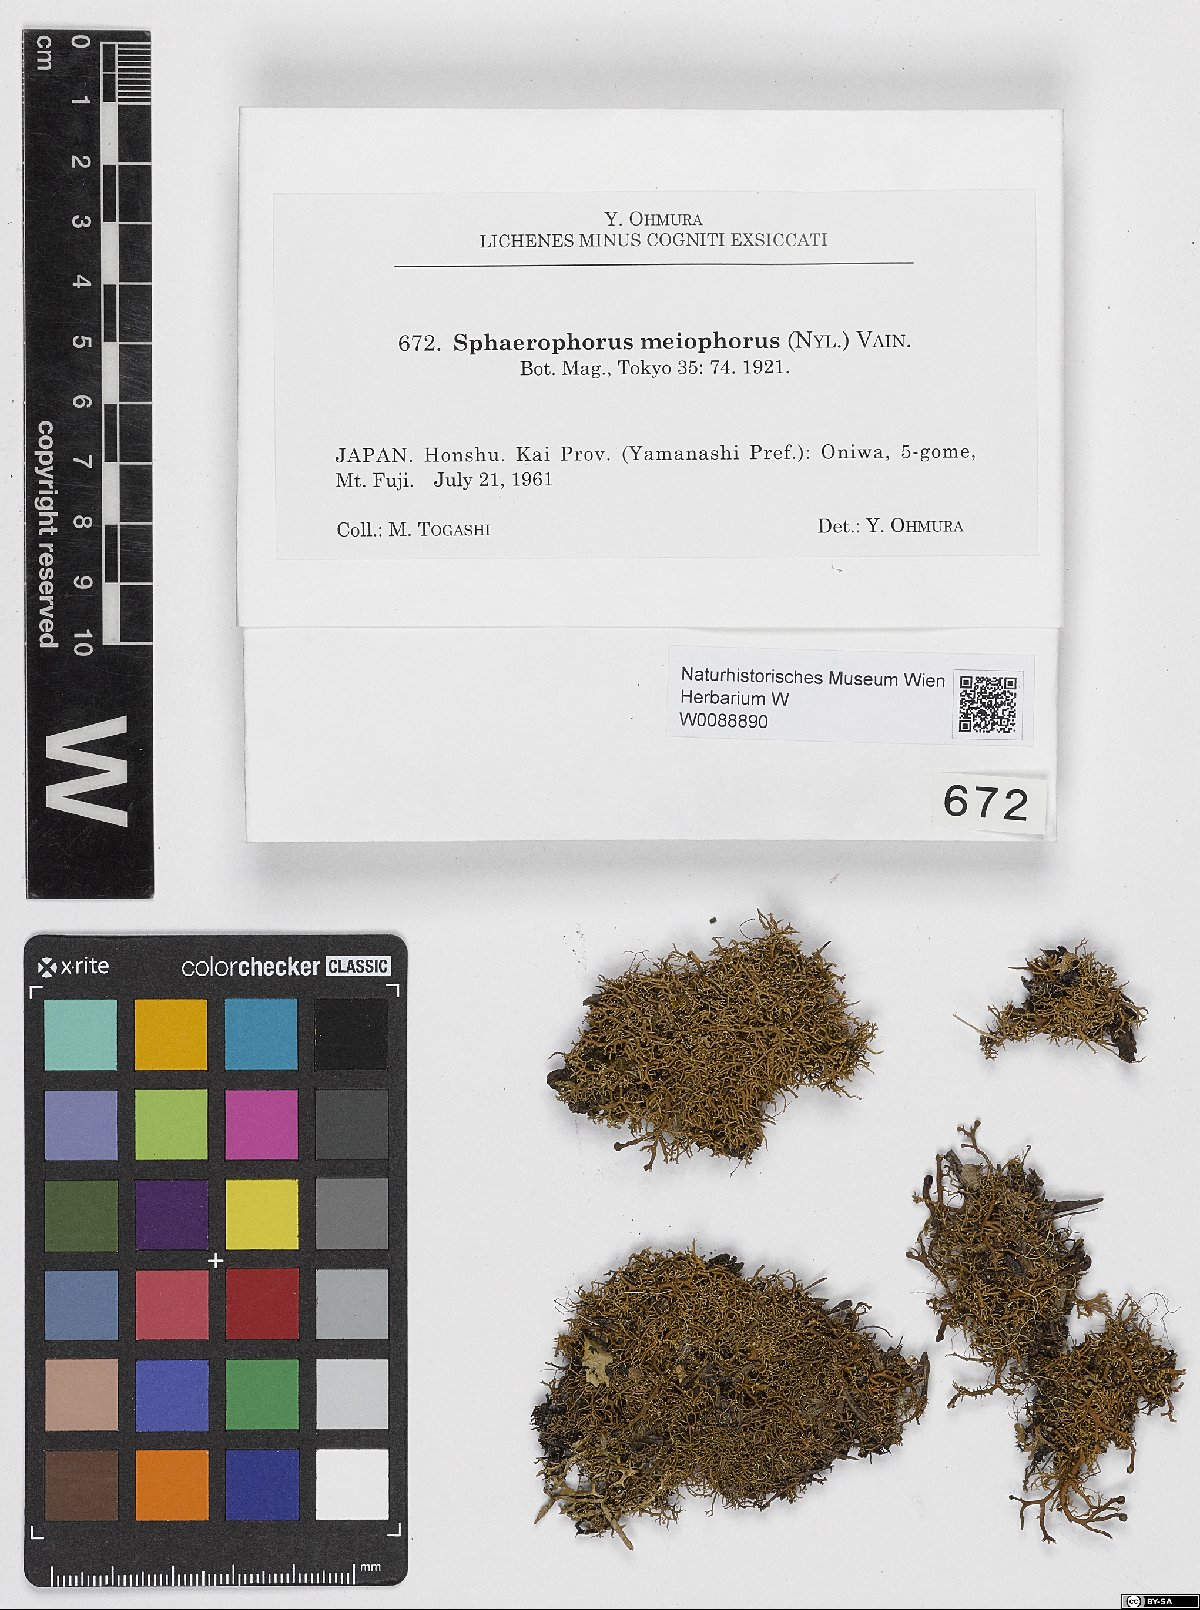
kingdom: Fungi
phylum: Ascomycota
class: Lecanoromycetes
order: Lecanorales
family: Sphaerophoraceae
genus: Sphaerophorus
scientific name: Sphaerophorus meiophorus
